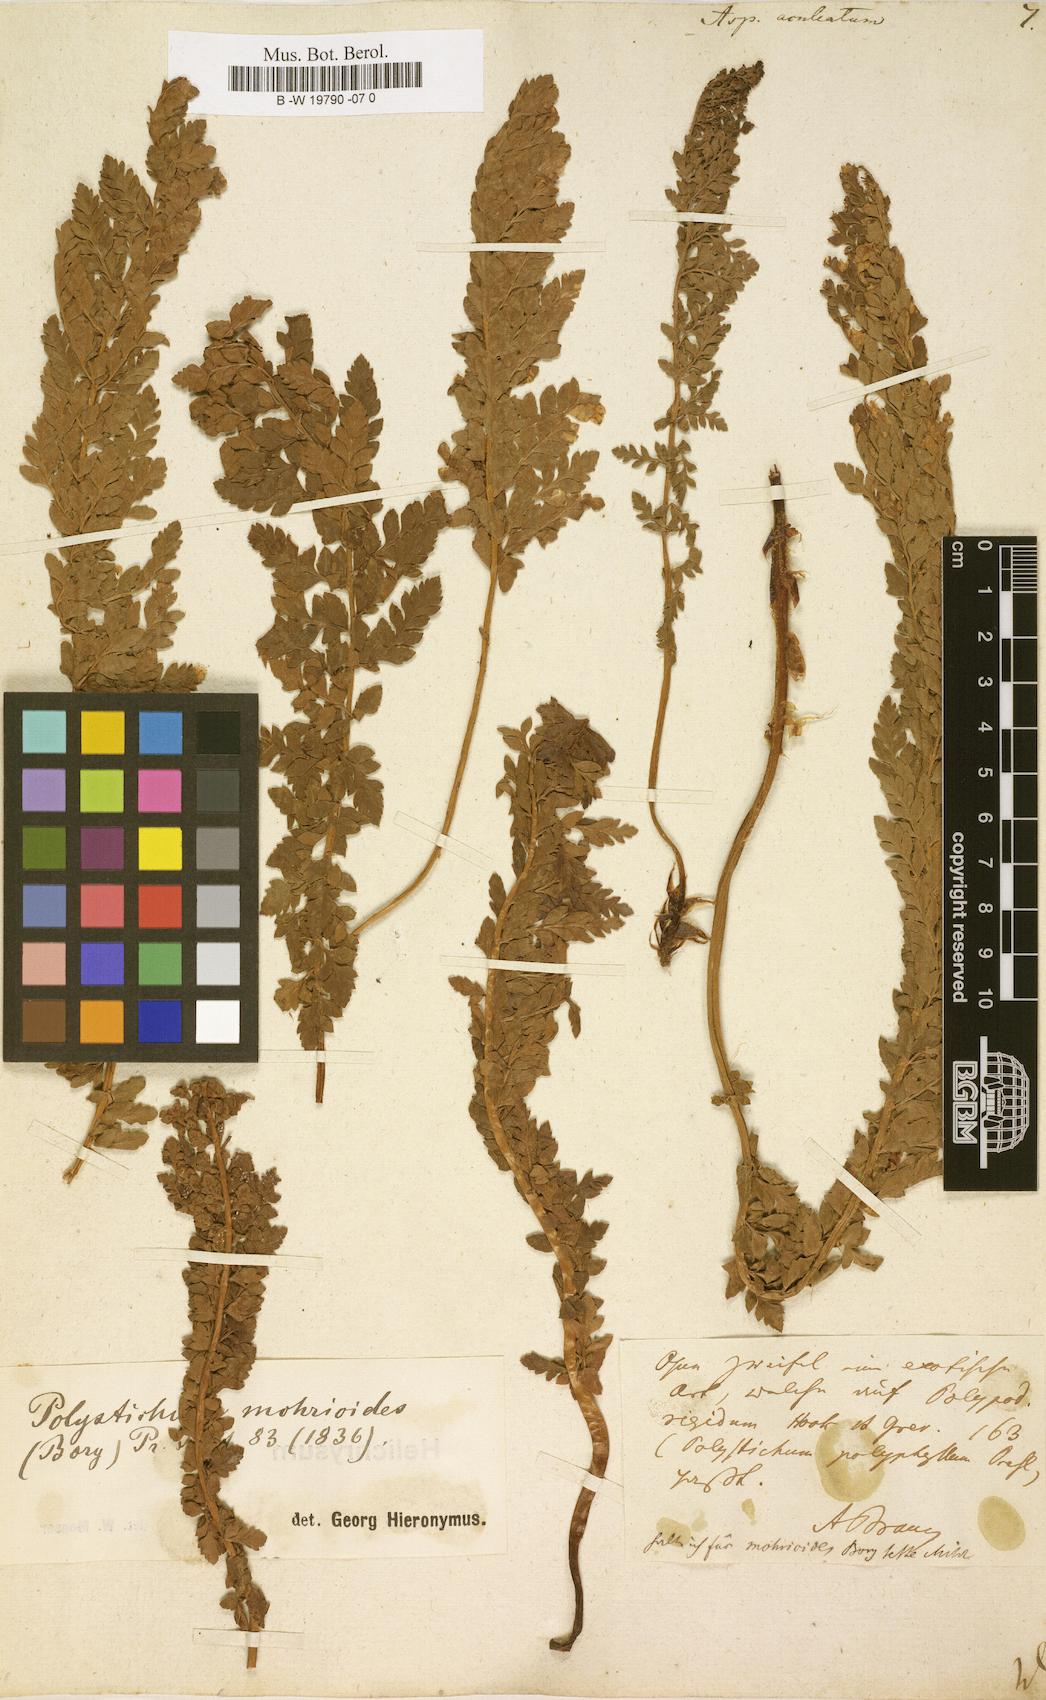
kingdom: Plantae
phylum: Tracheophyta
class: Polypodiopsida
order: Polypodiales
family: Dryopteridaceae
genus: Polystichum
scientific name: Polystichum aculeatum
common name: Hard shield-fern
